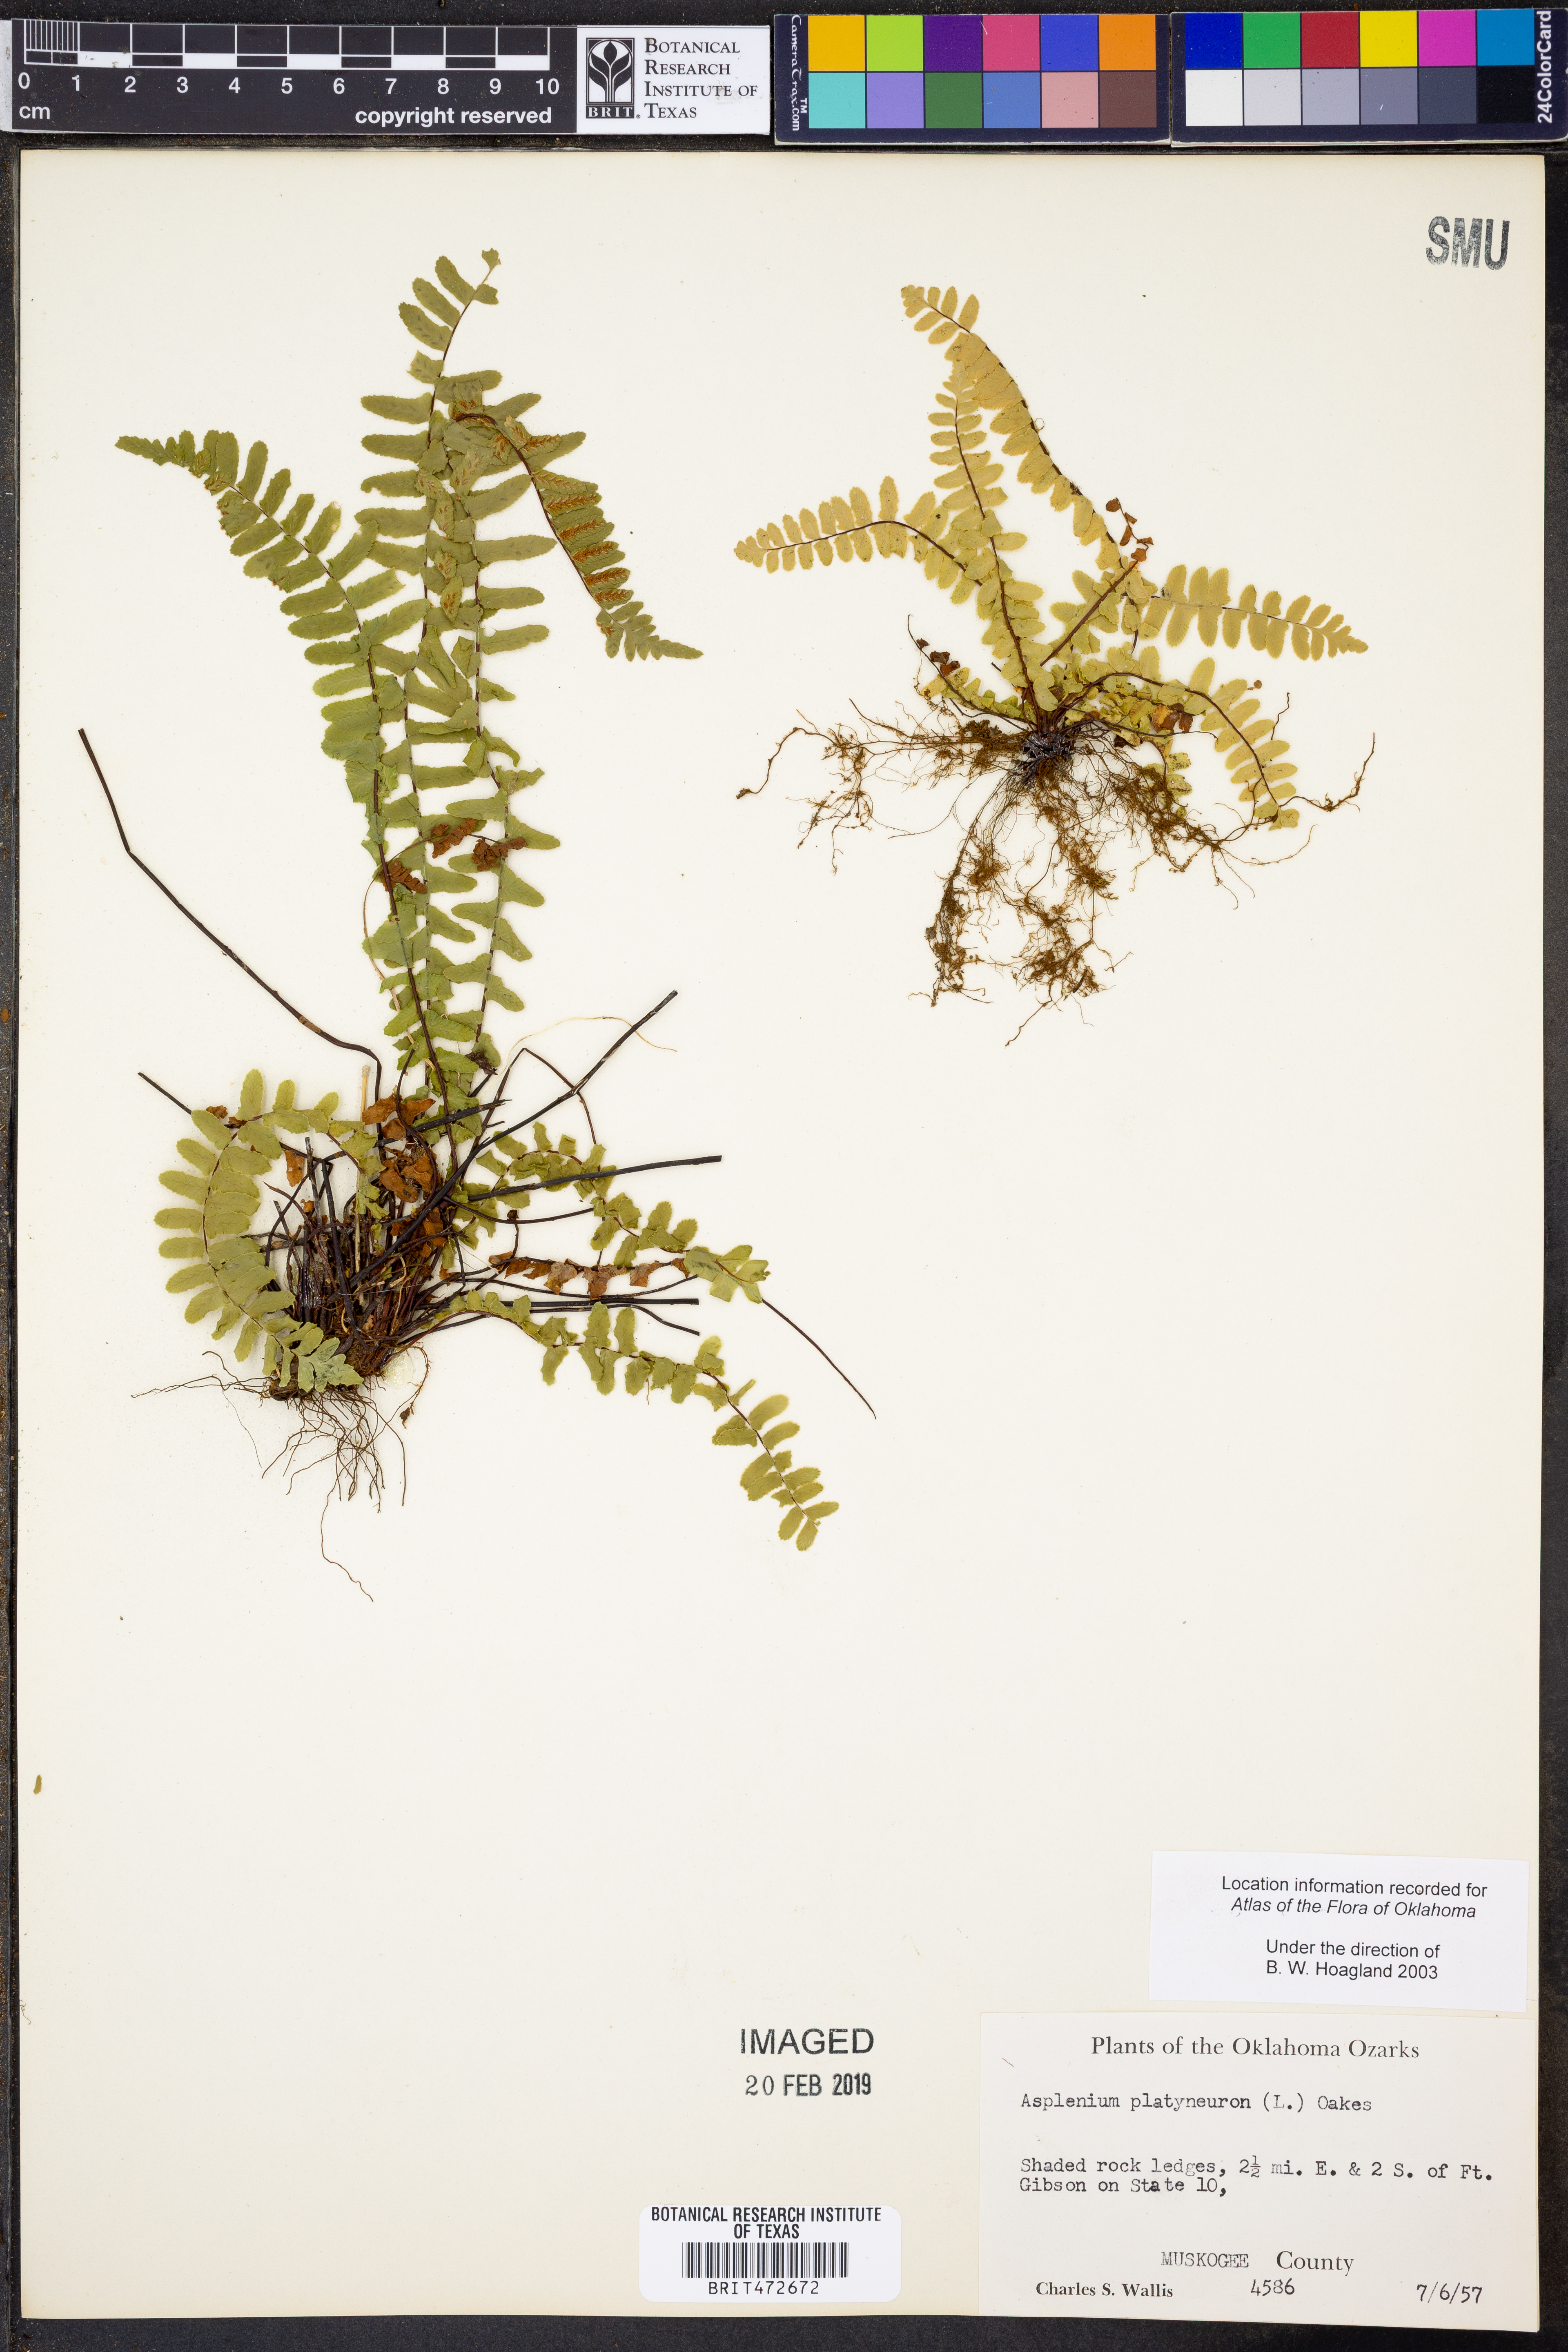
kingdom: Plantae
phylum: Tracheophyta
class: Polypodiopsida
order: Polypodiales
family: Aspleniaceae
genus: Asplenium
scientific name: Asplenium platyneuron
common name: Ebony spleenwort
